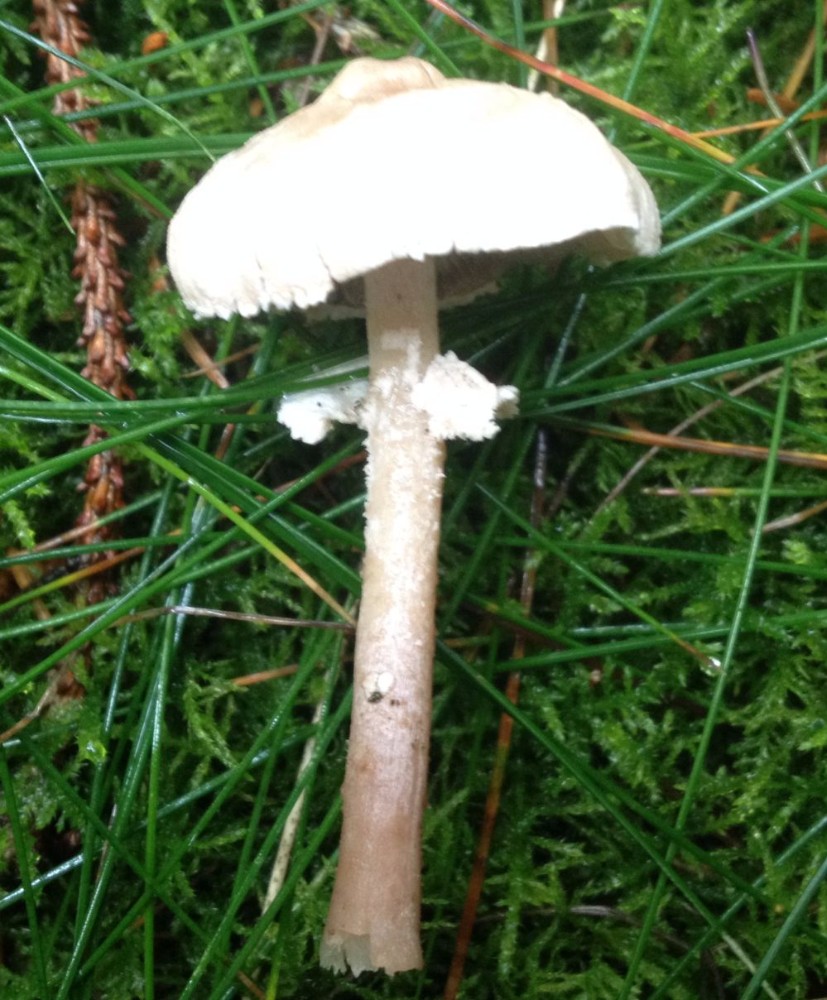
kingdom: Fungi
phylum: Basidiomycota
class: Agaricomycetes
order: Agaricales
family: Tricholomataceae
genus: Cystoderma
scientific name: Cystoderma carcharias
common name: rødgrå grynhat
